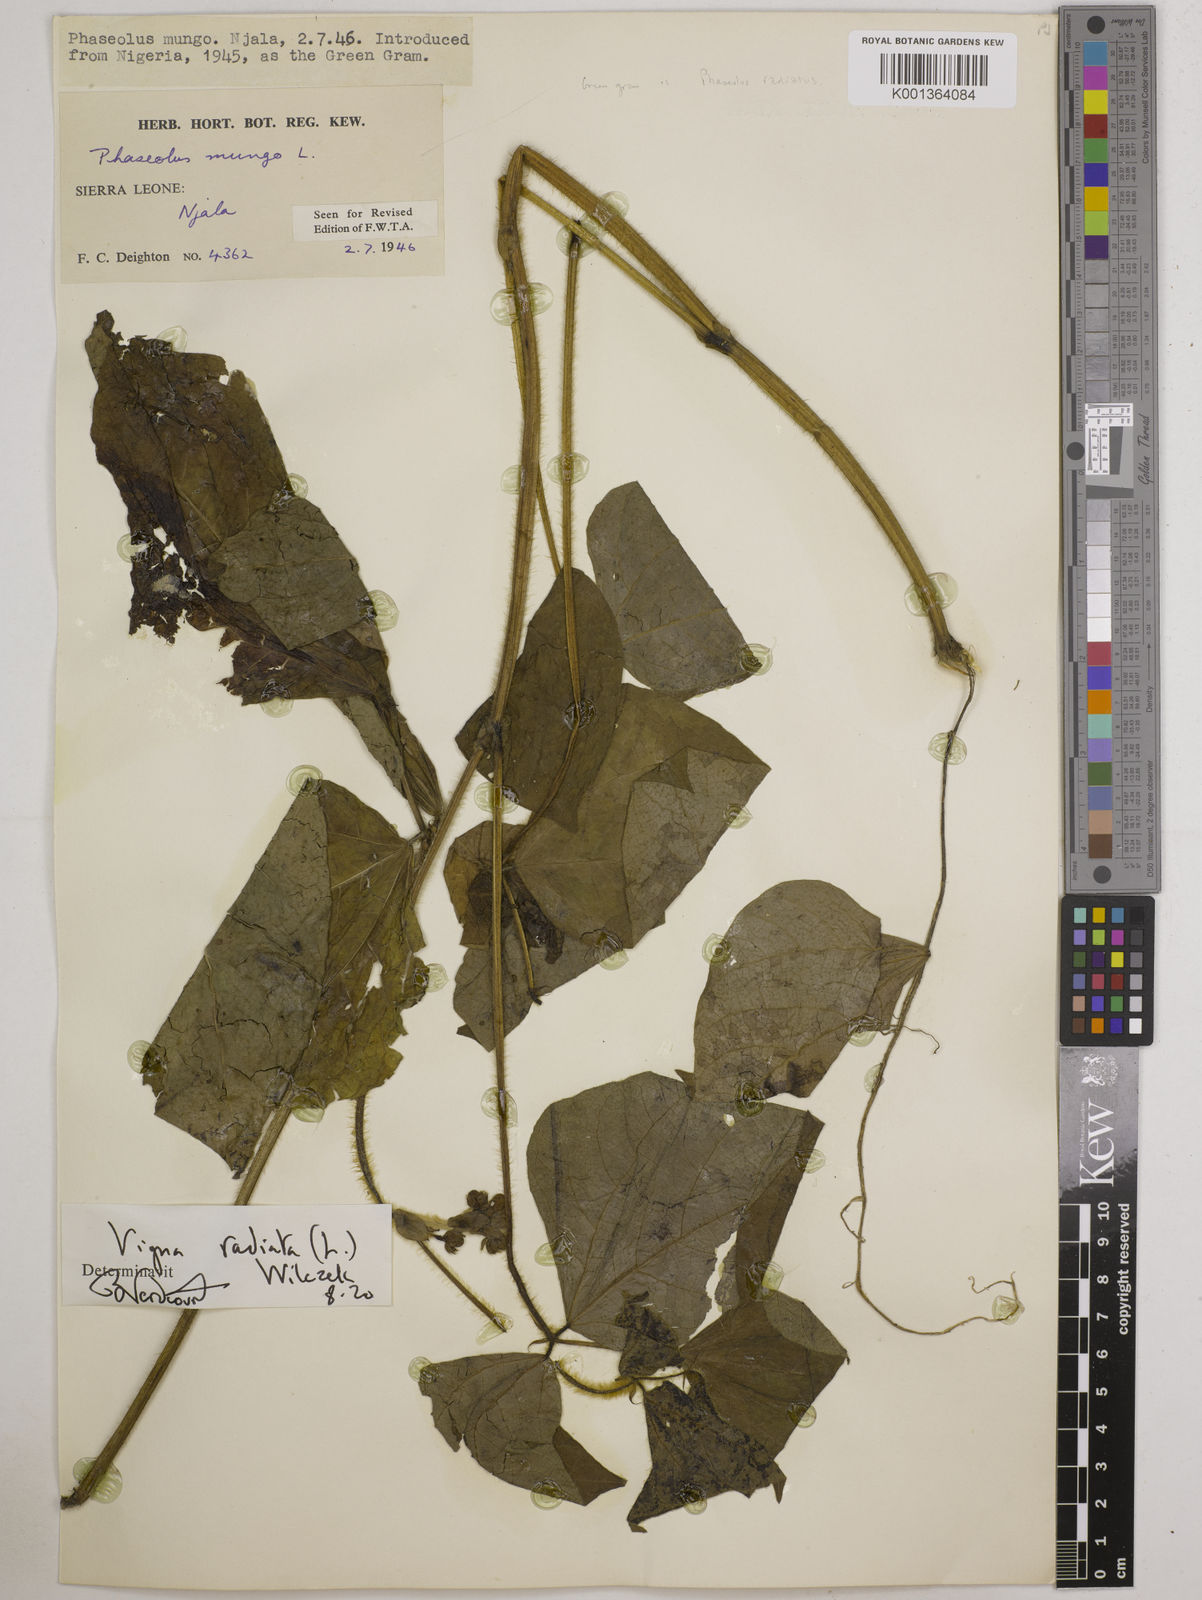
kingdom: Plantae
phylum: Tracheophyta
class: Magnoliopsida
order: Fabales
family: Fabaceae
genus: Vigna
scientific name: Vigna radiata
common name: Mung-bean
